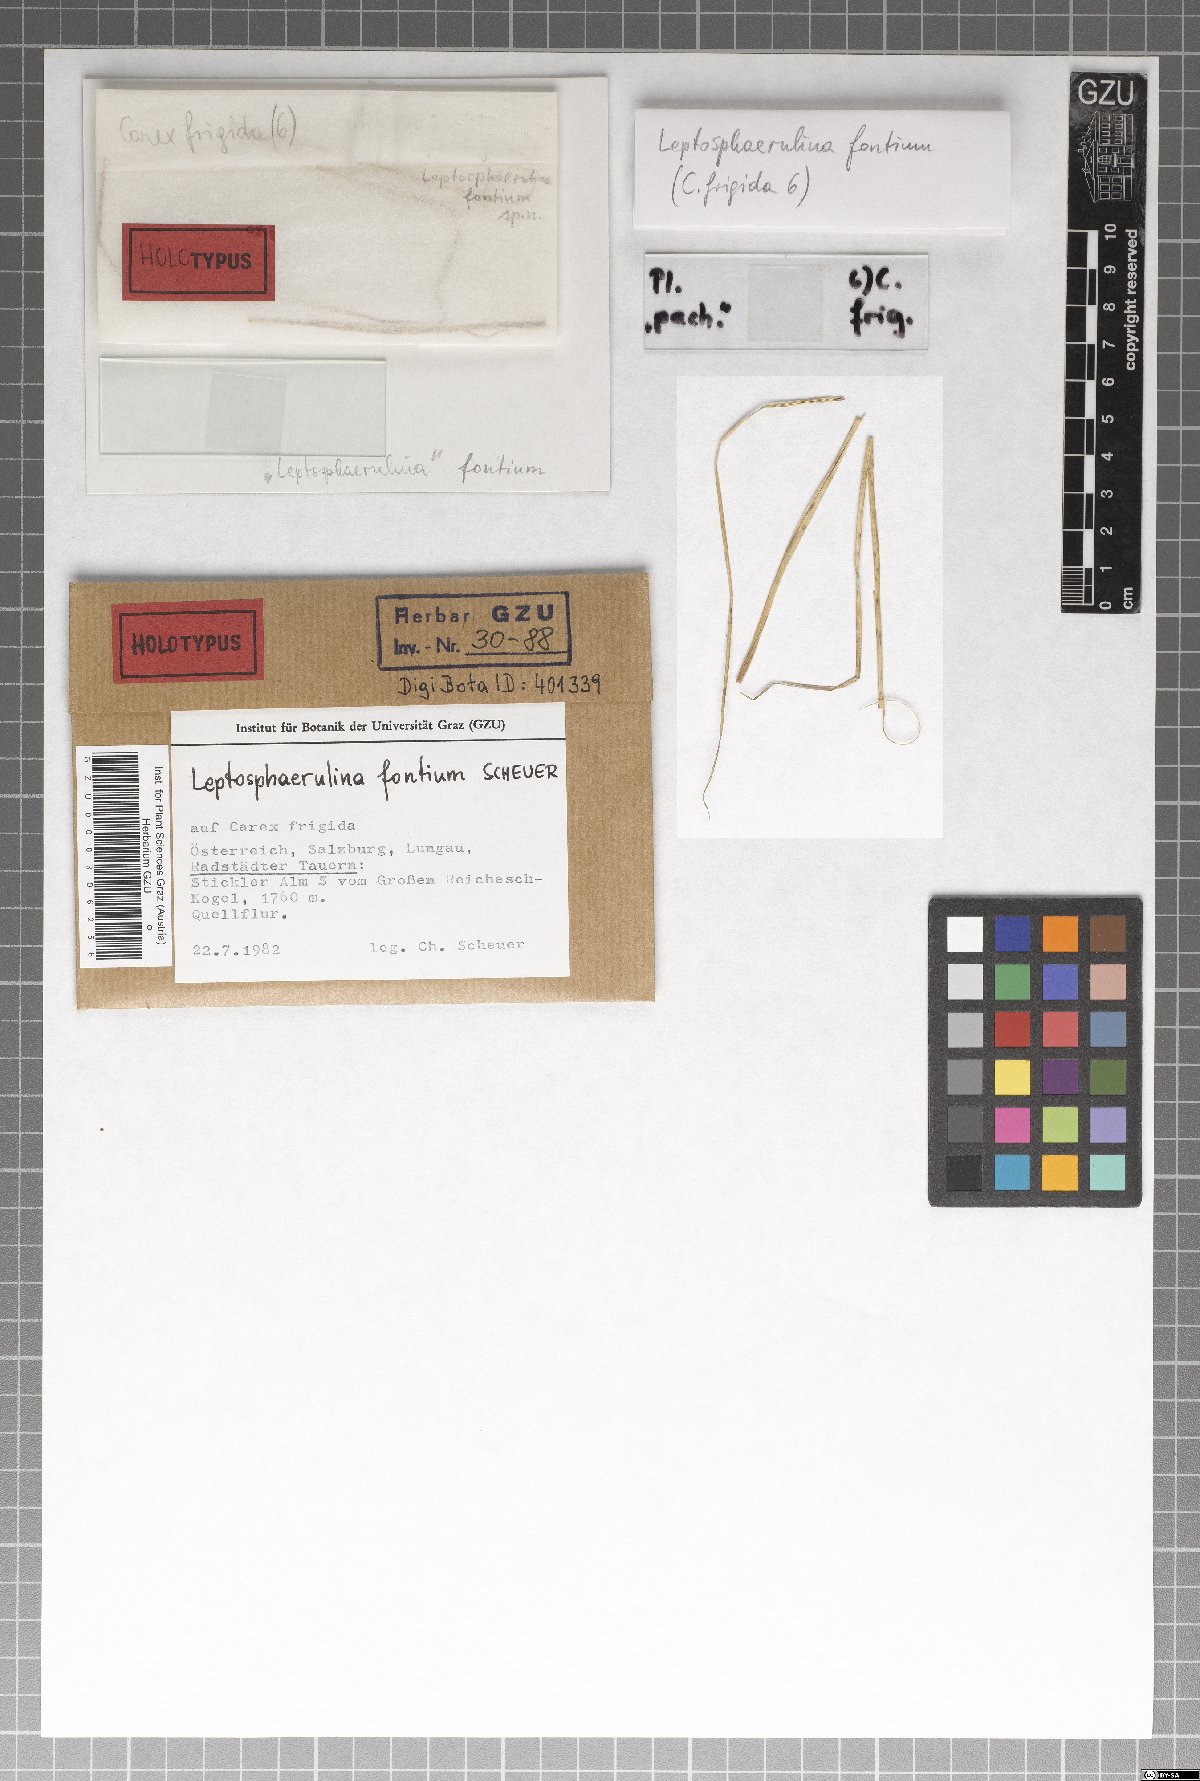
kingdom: Fungi
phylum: Ascomycota
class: Dothideomycetes
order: Pleosporales
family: Didymellaceae
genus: Leptosphaerulina
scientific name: Leptosphaerulina fontium
